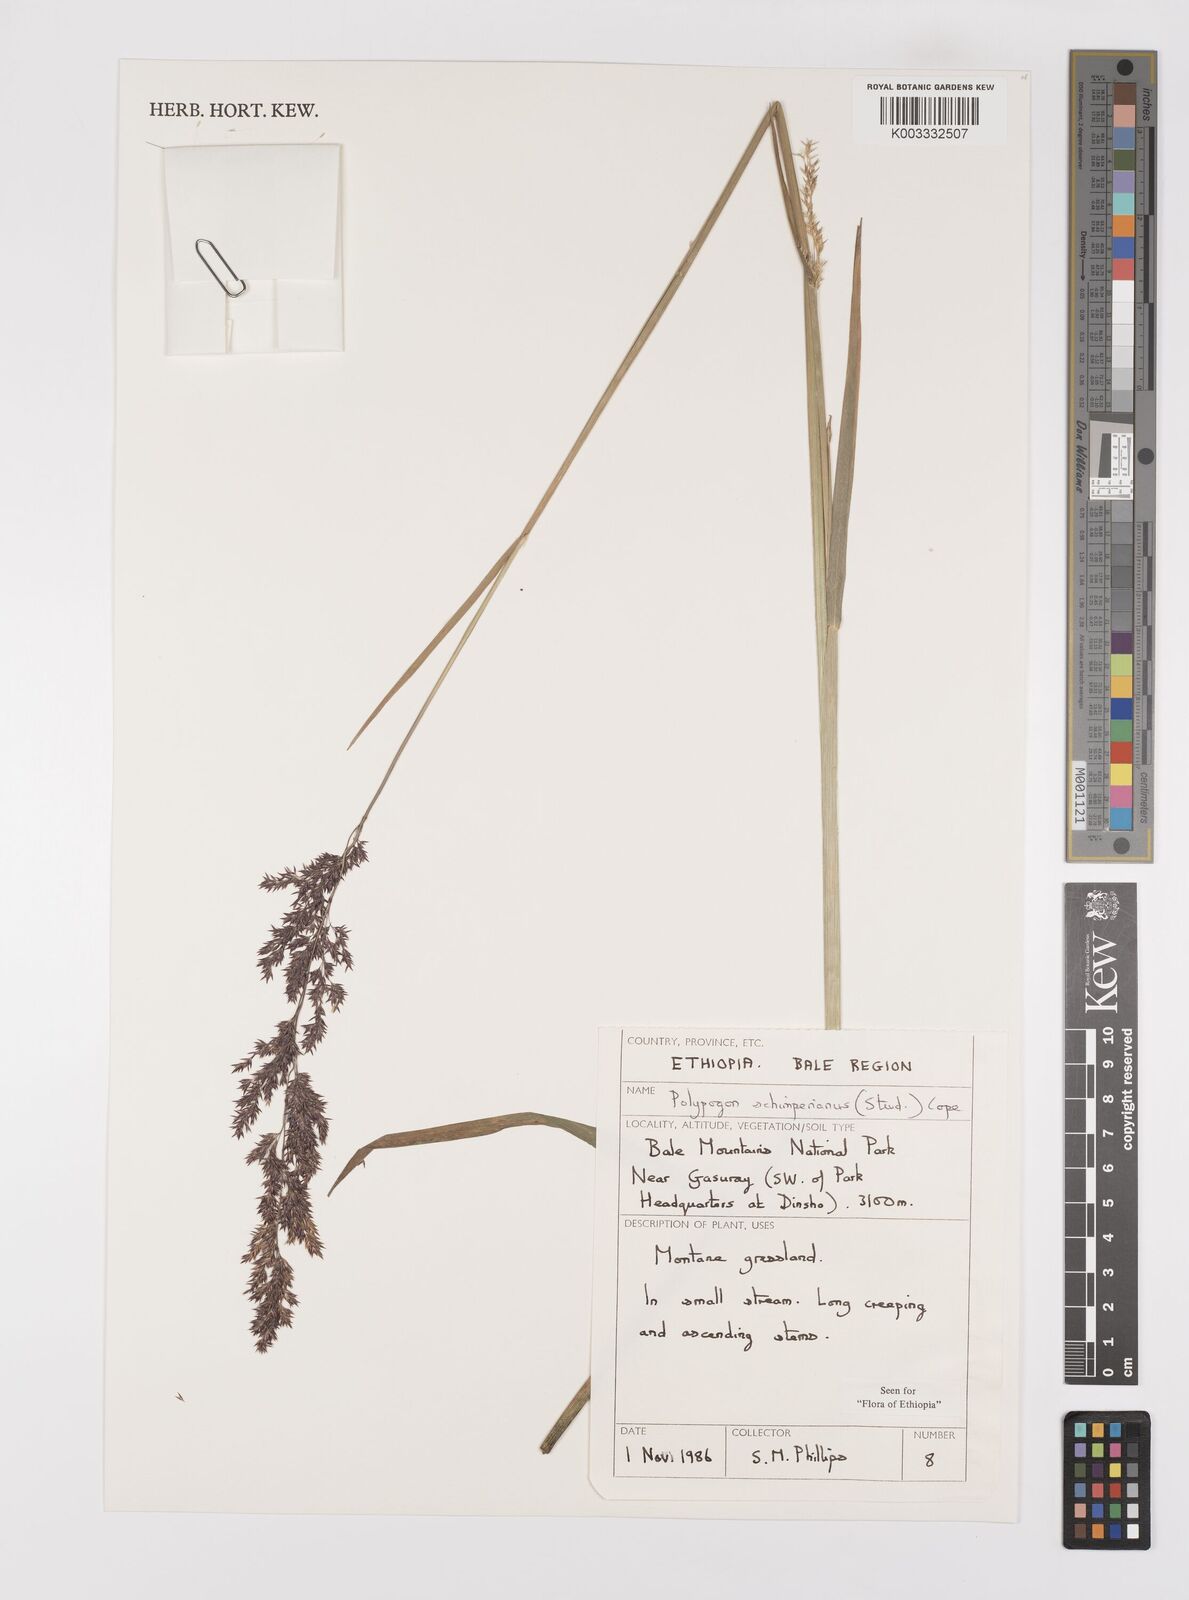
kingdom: Plantae
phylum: Tracheophyta
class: Liliopsida
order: Poales
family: Poaceae
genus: Polypogon
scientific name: Polypogon schimperianus
